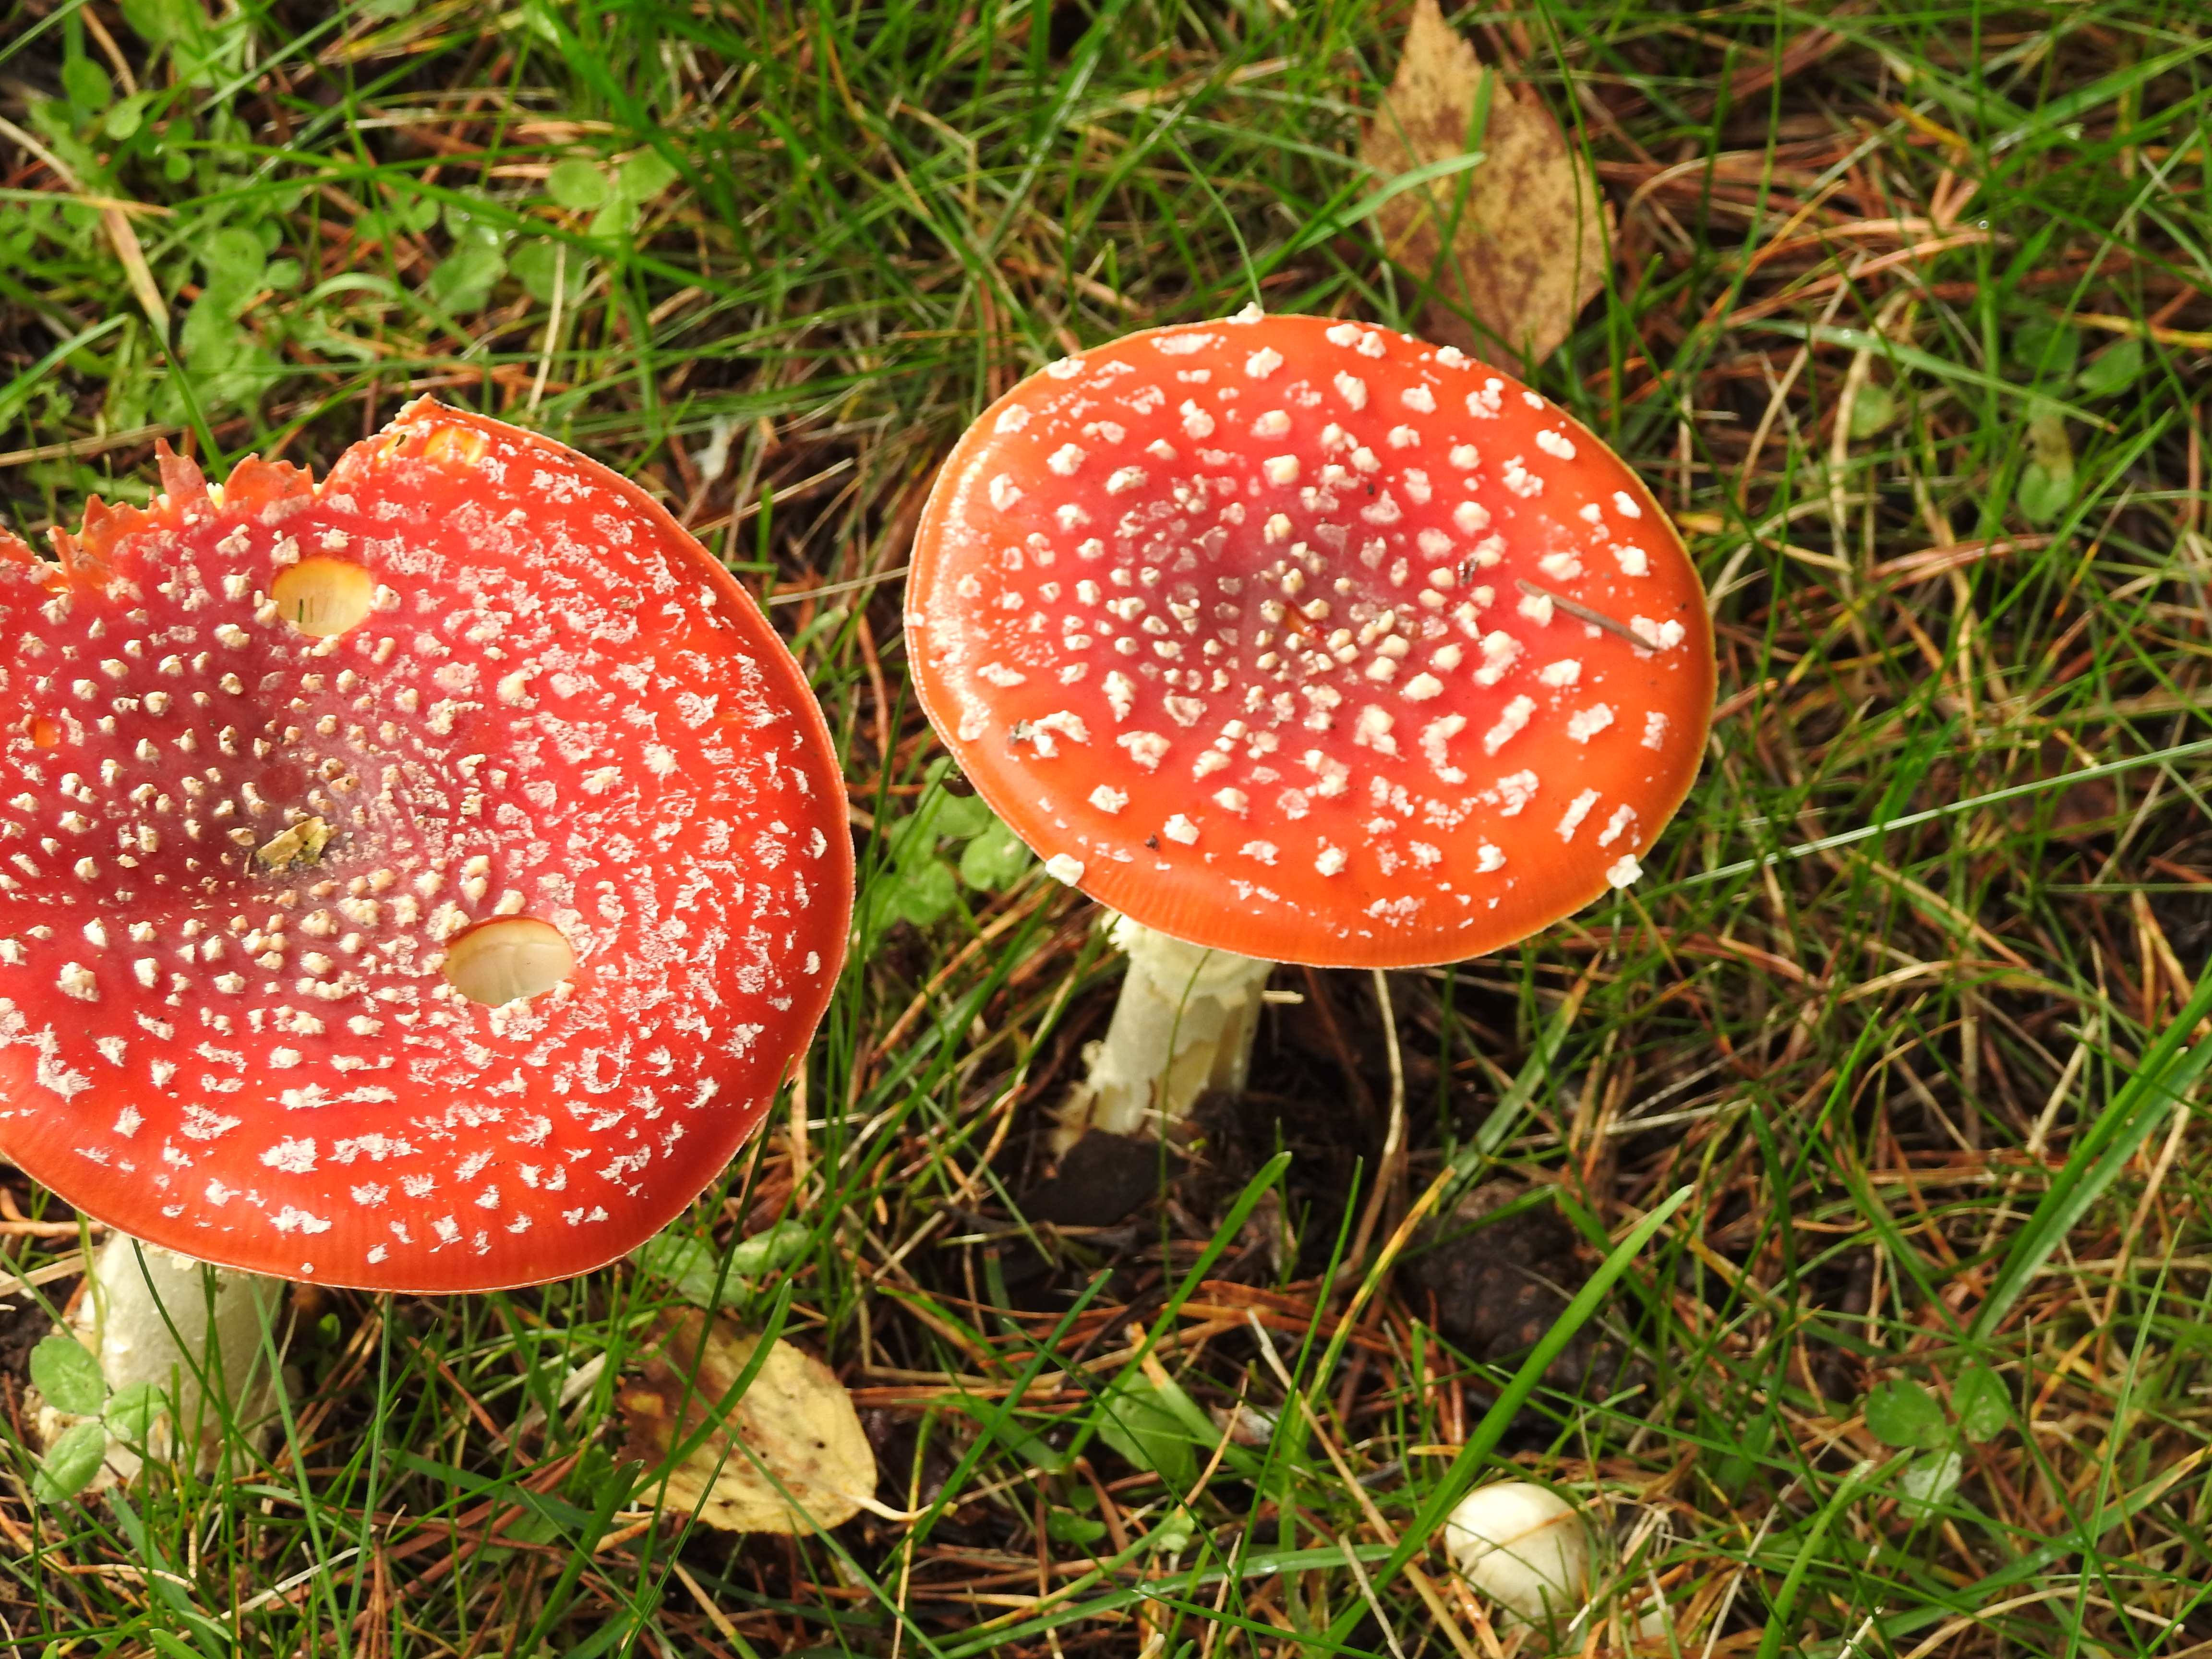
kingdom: Fungi
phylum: Basidiomycota
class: Agaricomycetes
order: Agaricales
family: Amanitaceae
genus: Amanita
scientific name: Amanita muscaria
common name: Fly agaric
